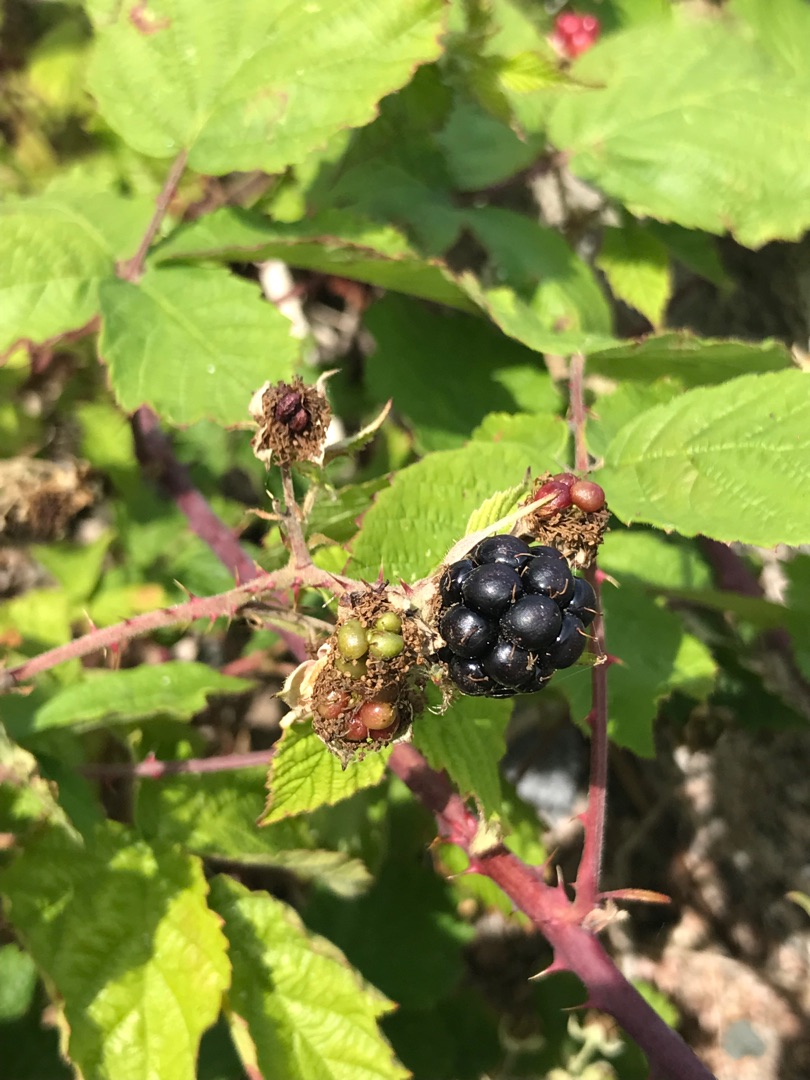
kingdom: Plantae
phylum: Tracheophyta
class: Magnoliopsida
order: Rosales
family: Rosaceae
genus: Rubus
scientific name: Rubus
